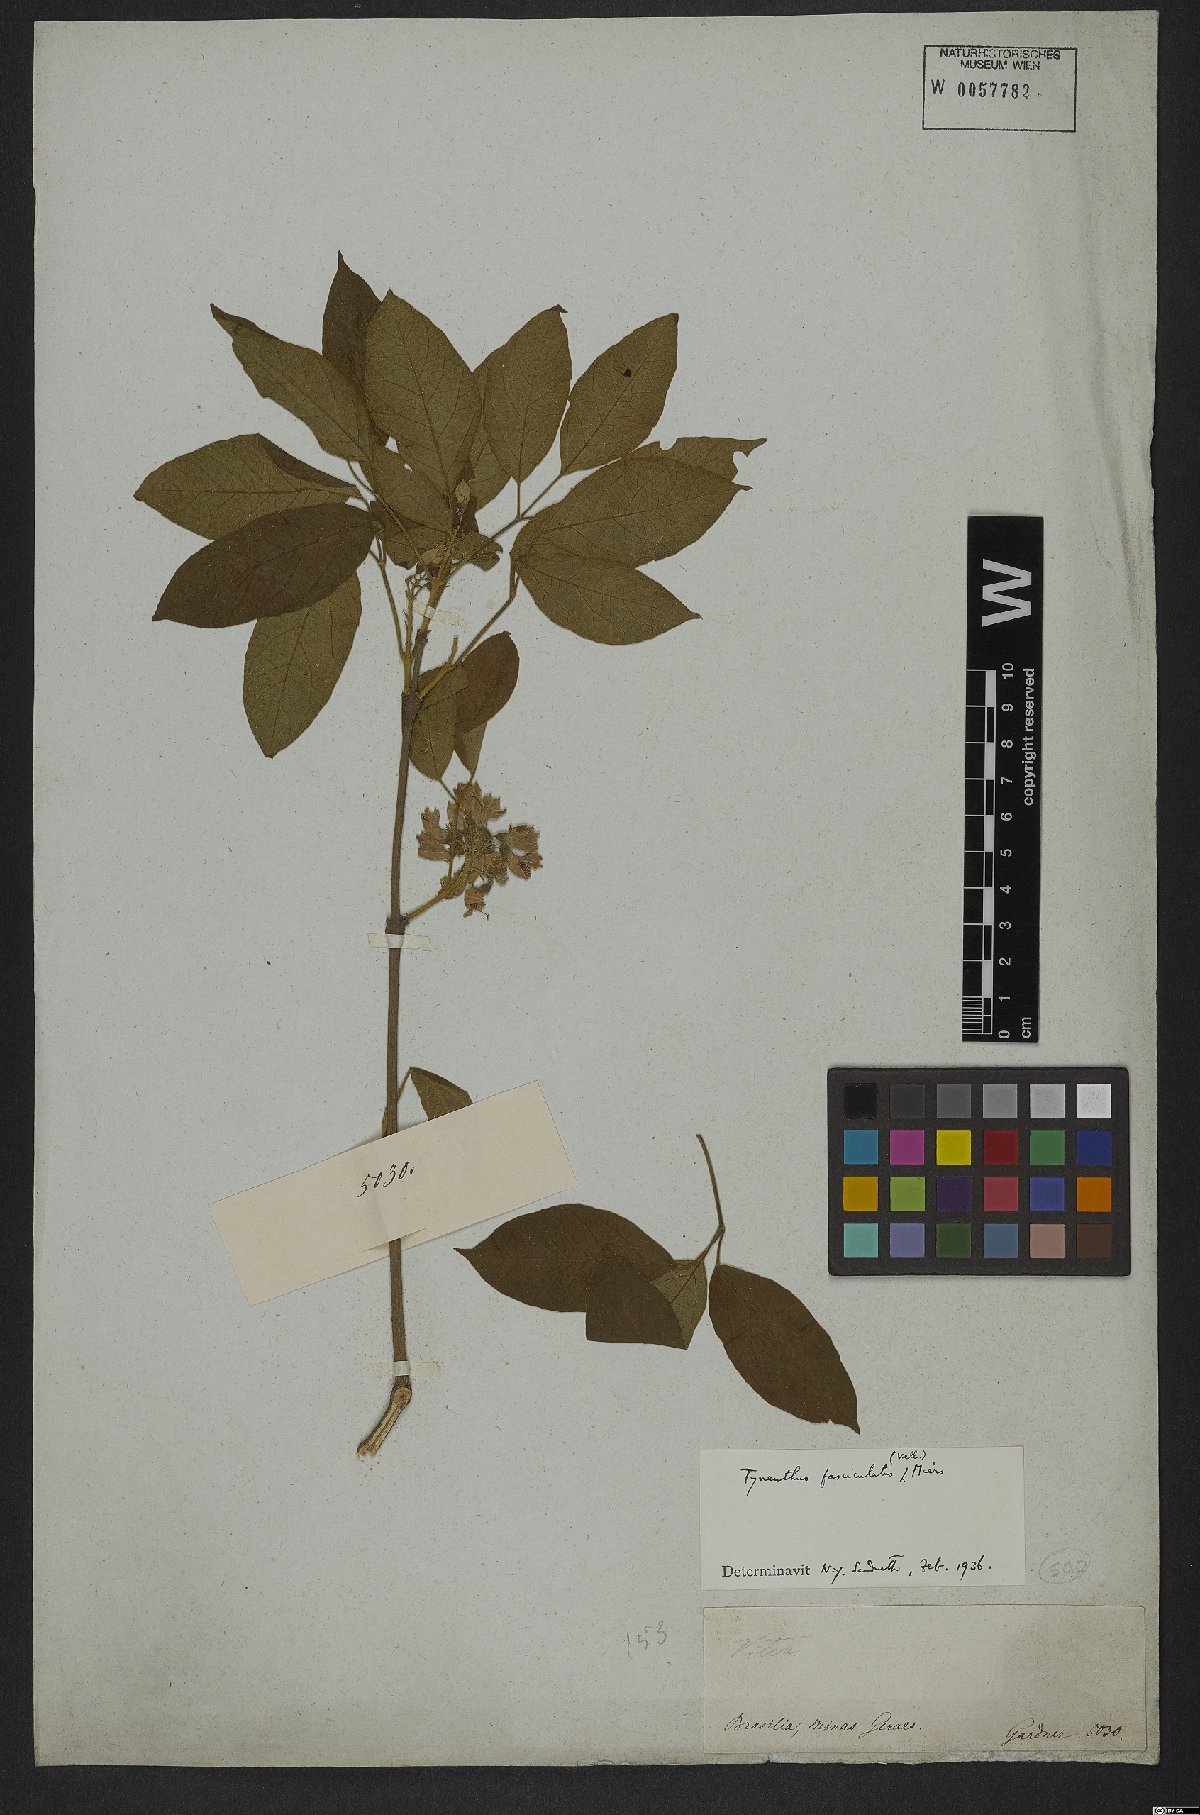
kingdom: Plantae
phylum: Tracheophyta
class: Magnoliopsida
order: Lamiales
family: Bignoniaceae
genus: Tynanthus
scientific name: Tynanthus fasciculatus
